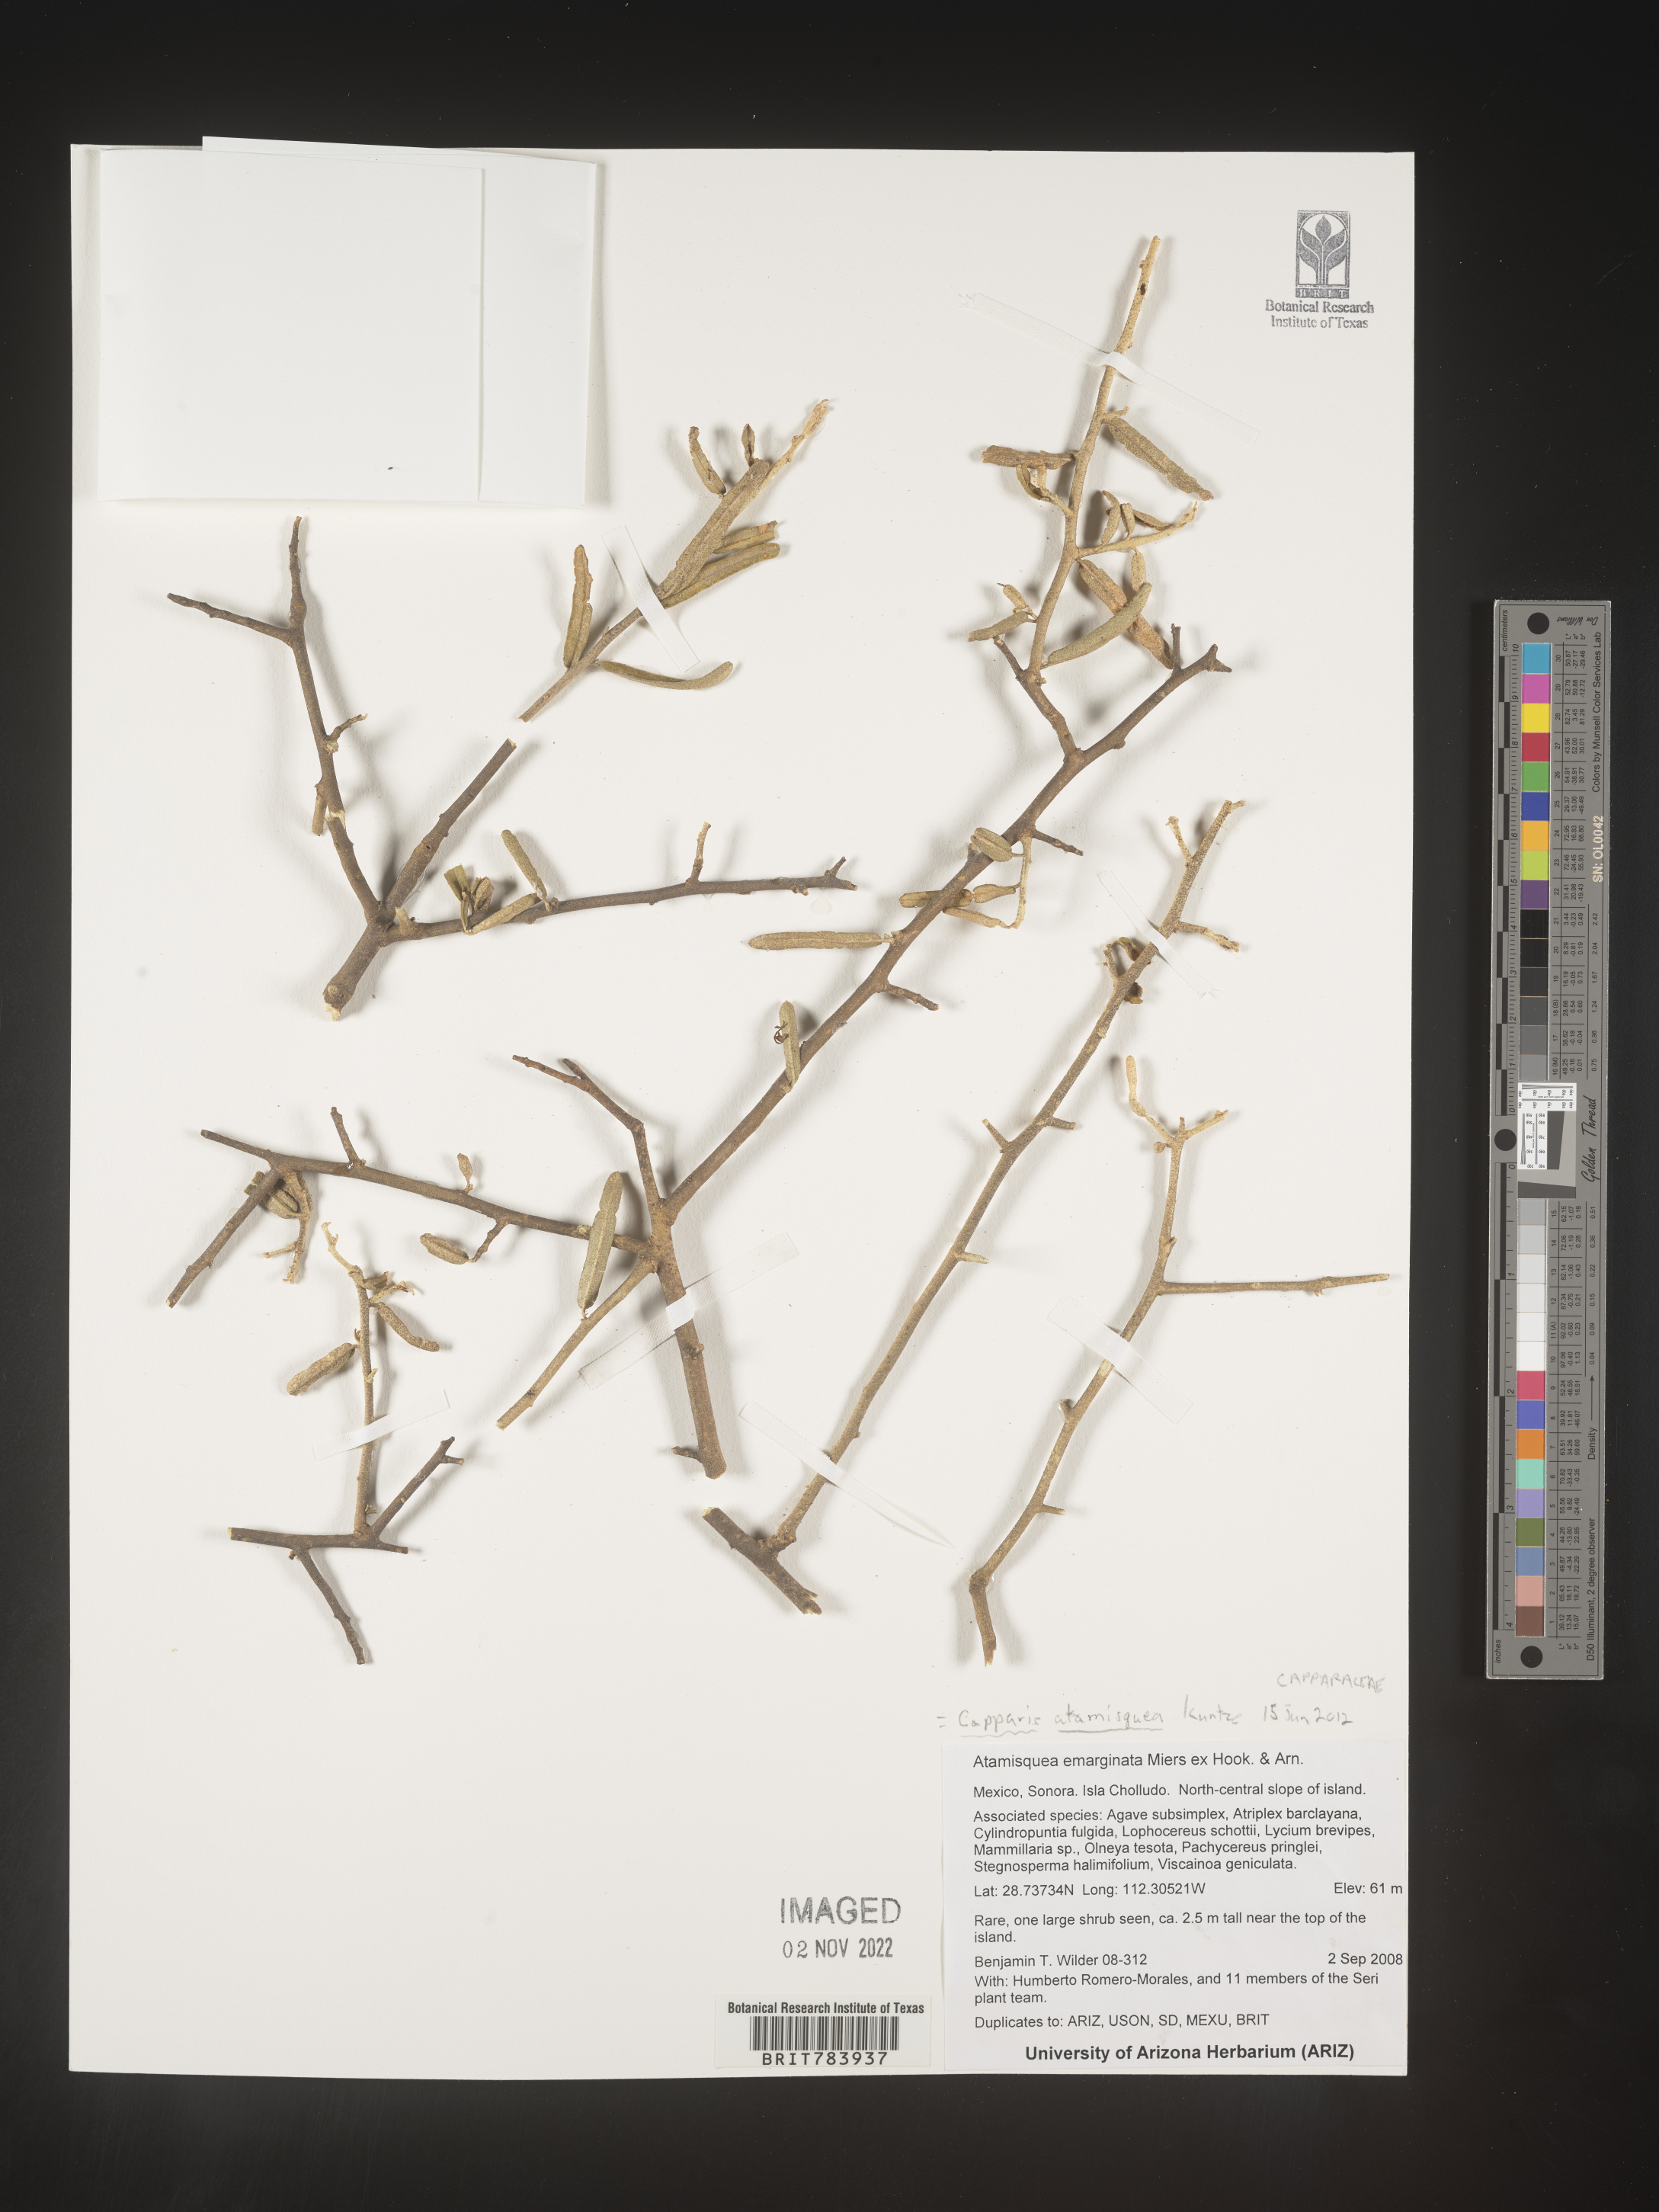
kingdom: Plantae
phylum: Tracheophyta
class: Magnoliopsida
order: Brassicales
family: Capparaceae
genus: Capparis
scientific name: Capparis
